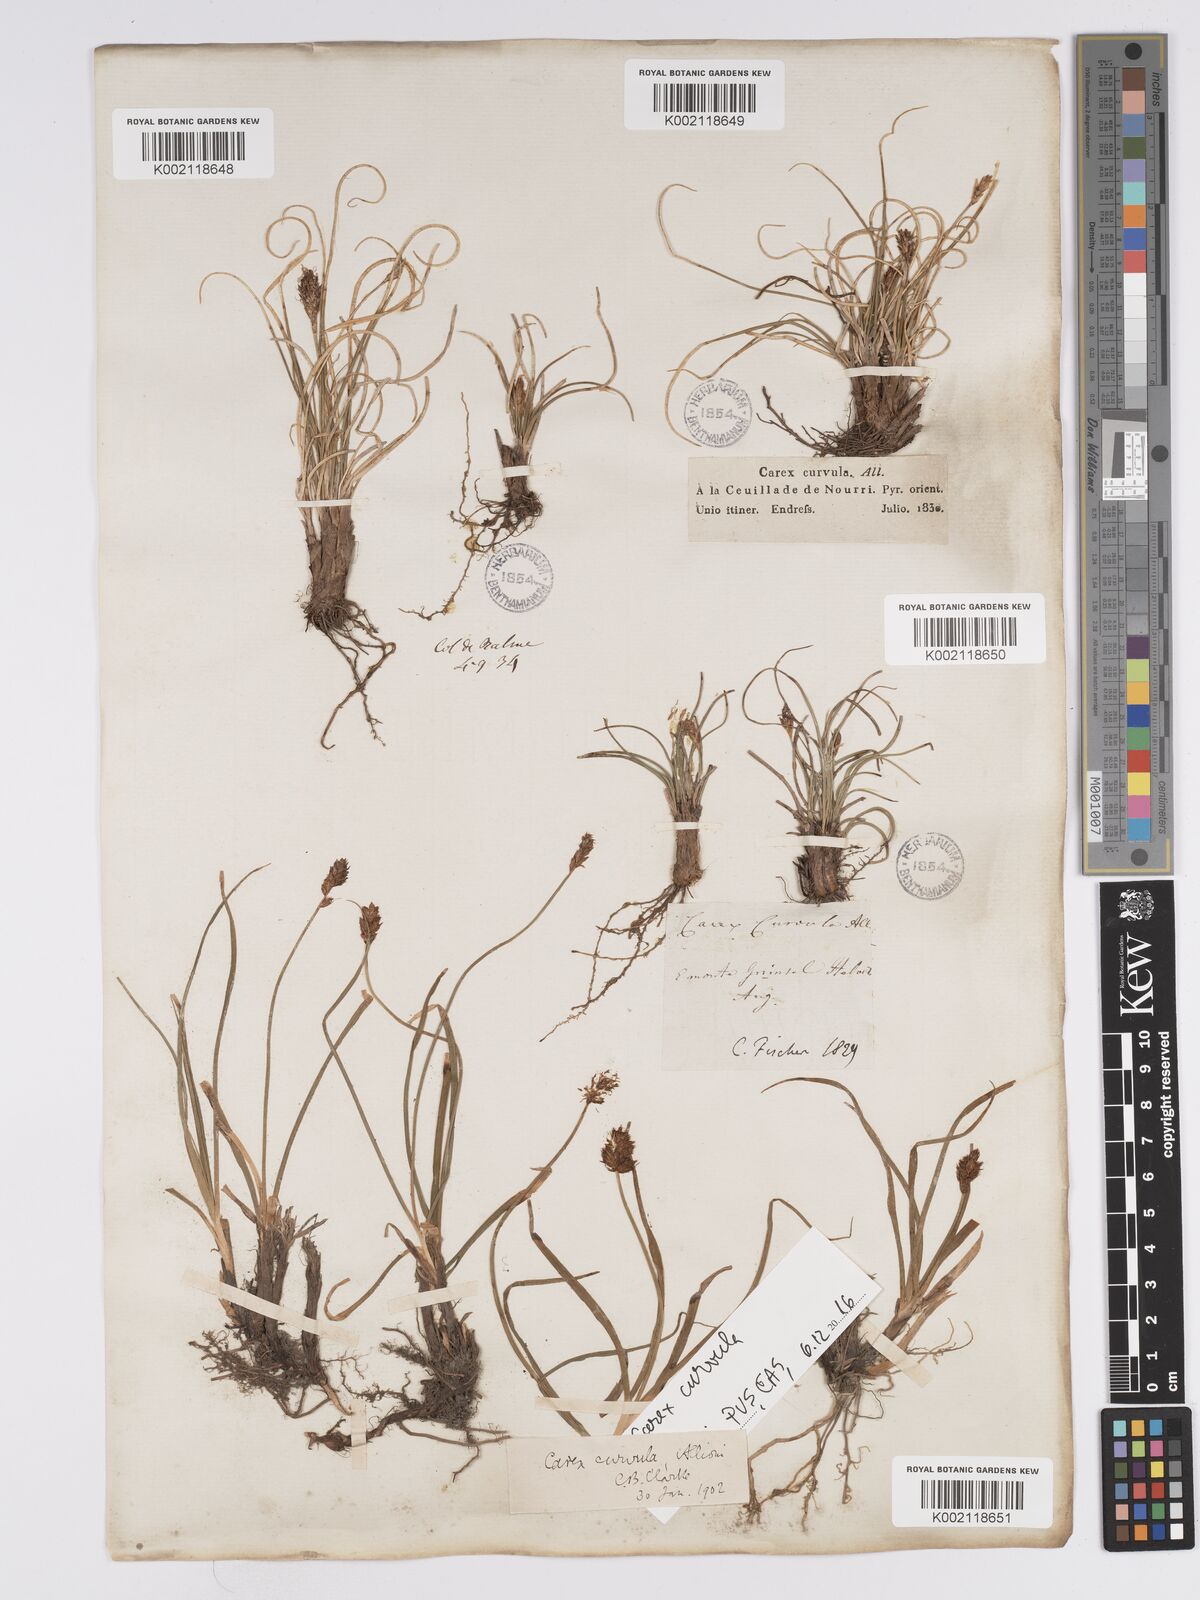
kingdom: Plantae
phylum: Tracheophyta
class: Liliopsida
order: Poales
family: Cyperaceae
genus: Carex
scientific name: Carex curvula
